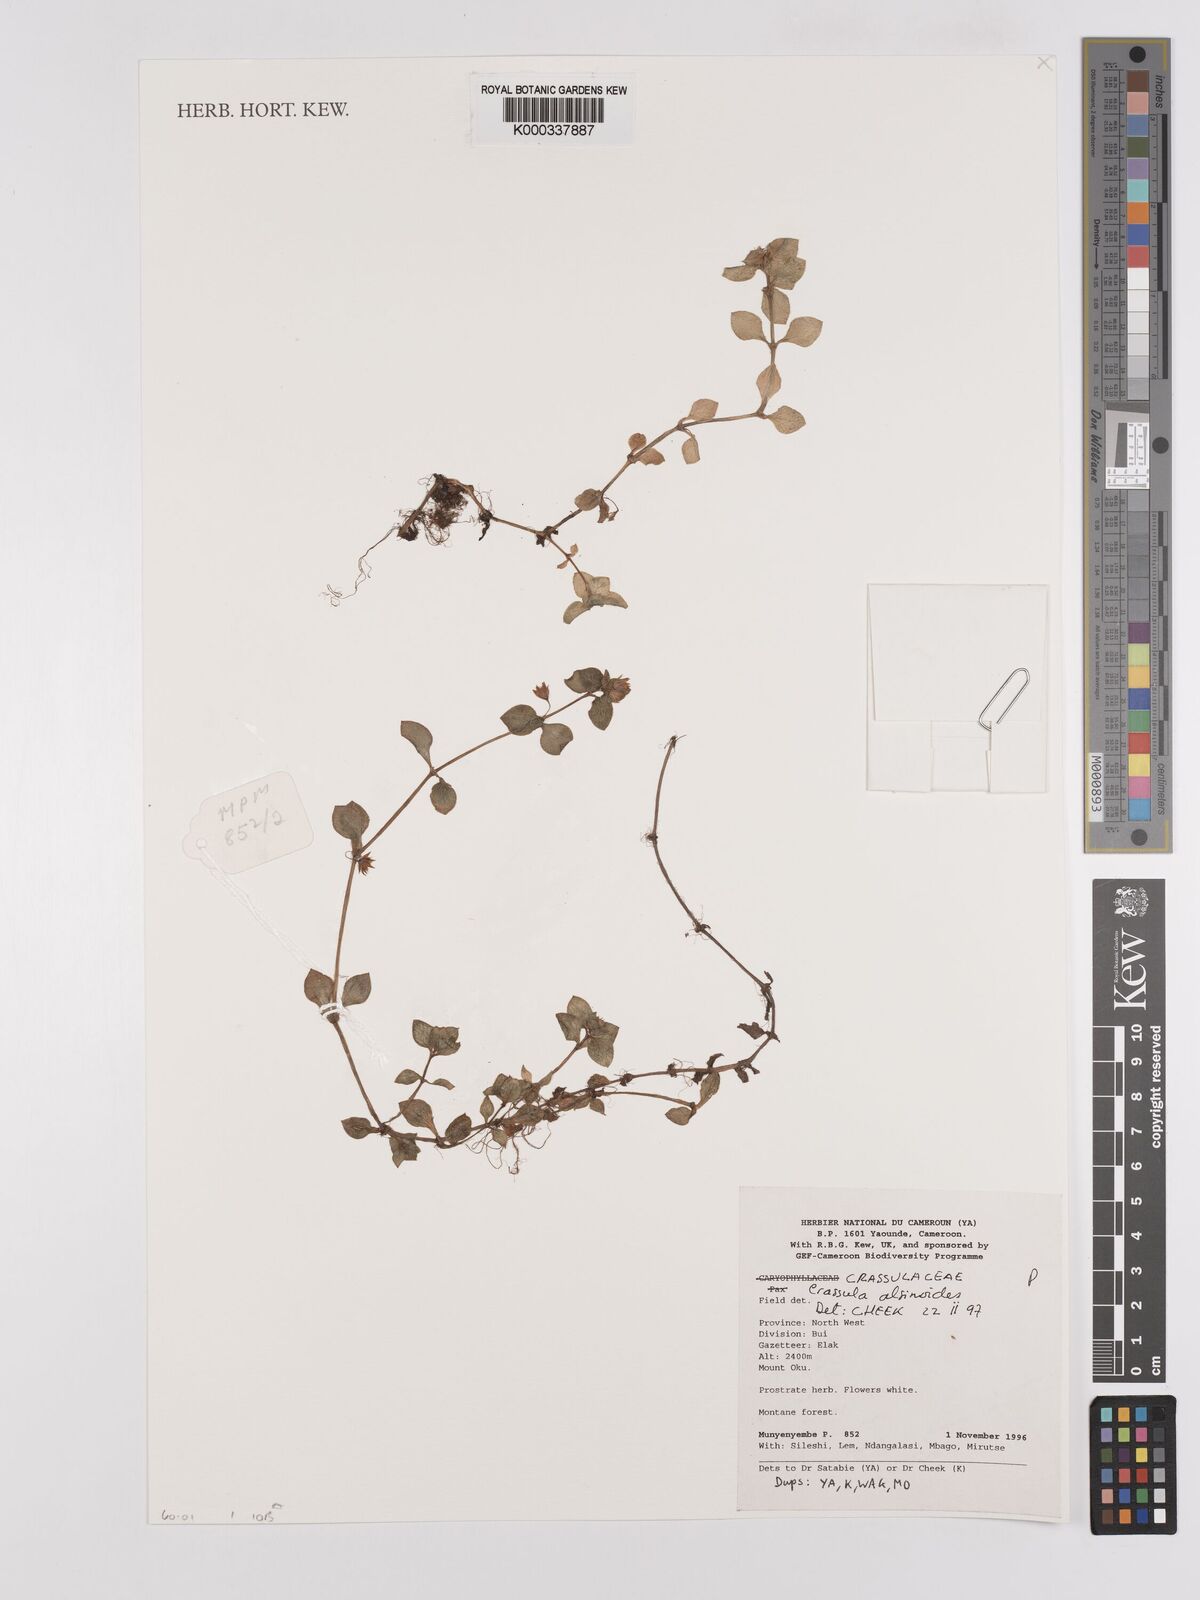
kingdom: Plantae
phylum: Tracheophyta
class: Magnoliopsida
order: Saxifragales
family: Crassulaceae
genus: Crassula
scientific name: Crassula alsinoides
